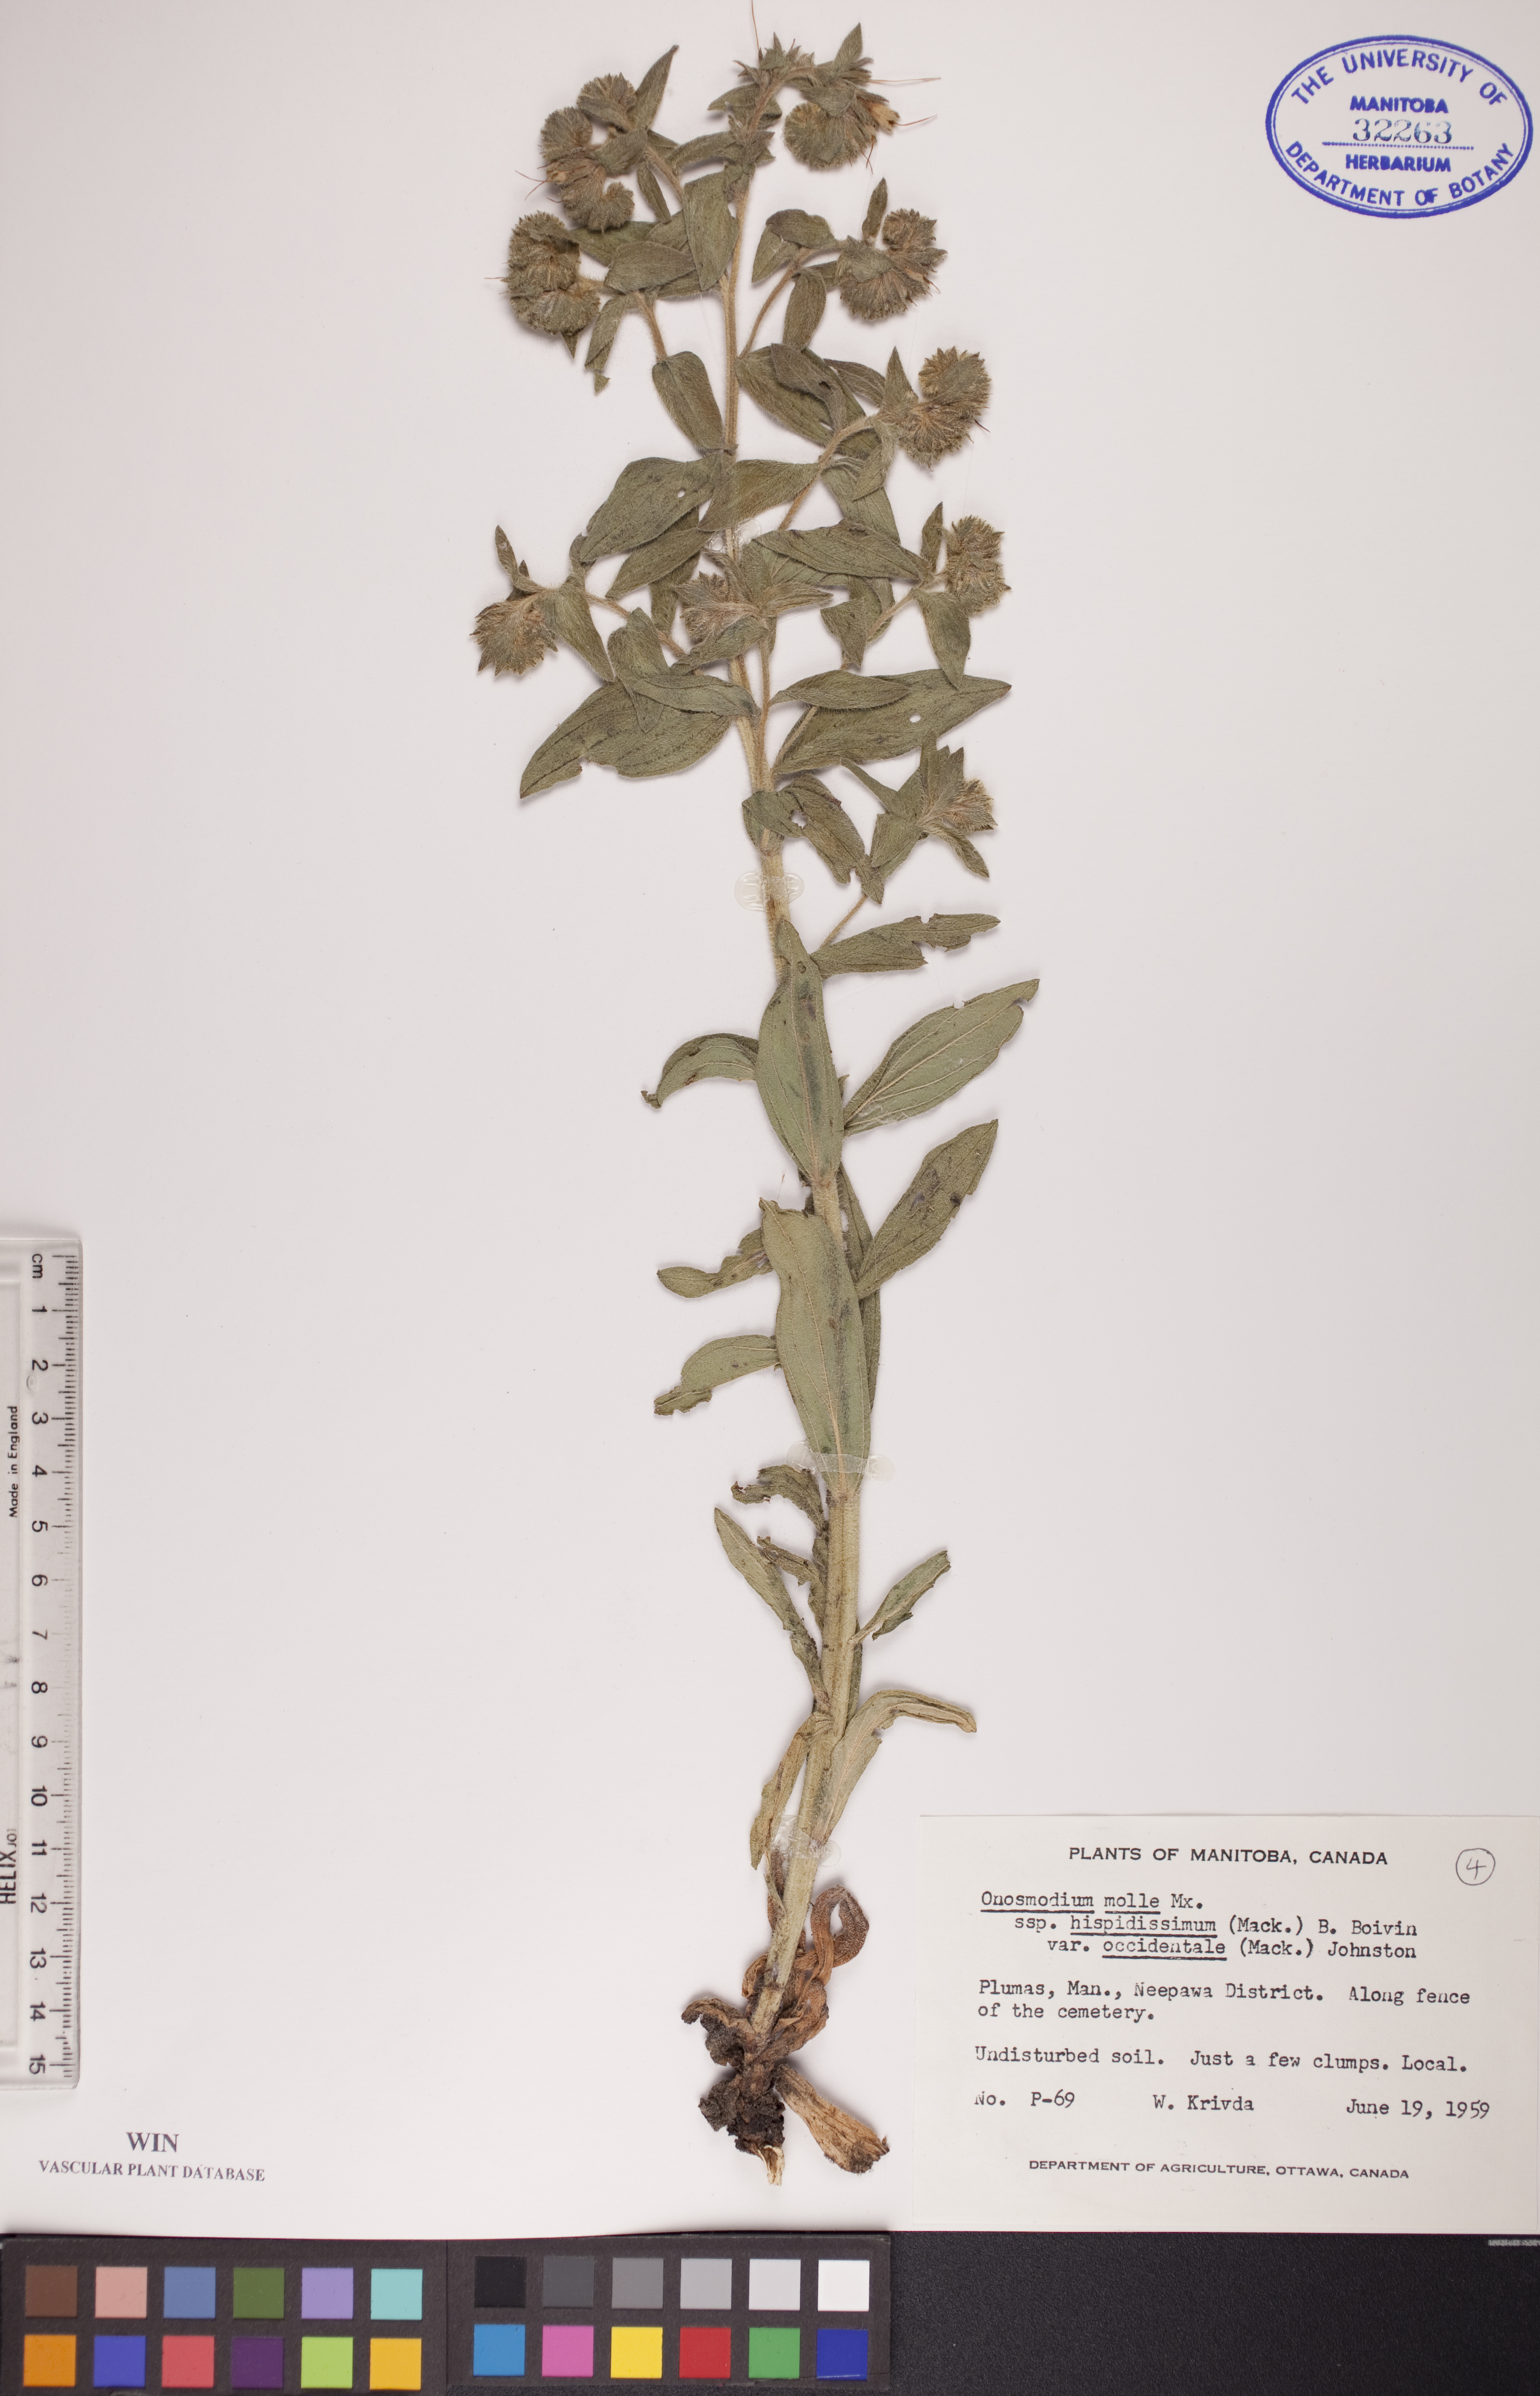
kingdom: Plantae
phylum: Tracheophyta
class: Magnoliopsida
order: Boraginales
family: Boraginaceae
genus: Lithospermum
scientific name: Lithospermum occidentale
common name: Western false gromwell
